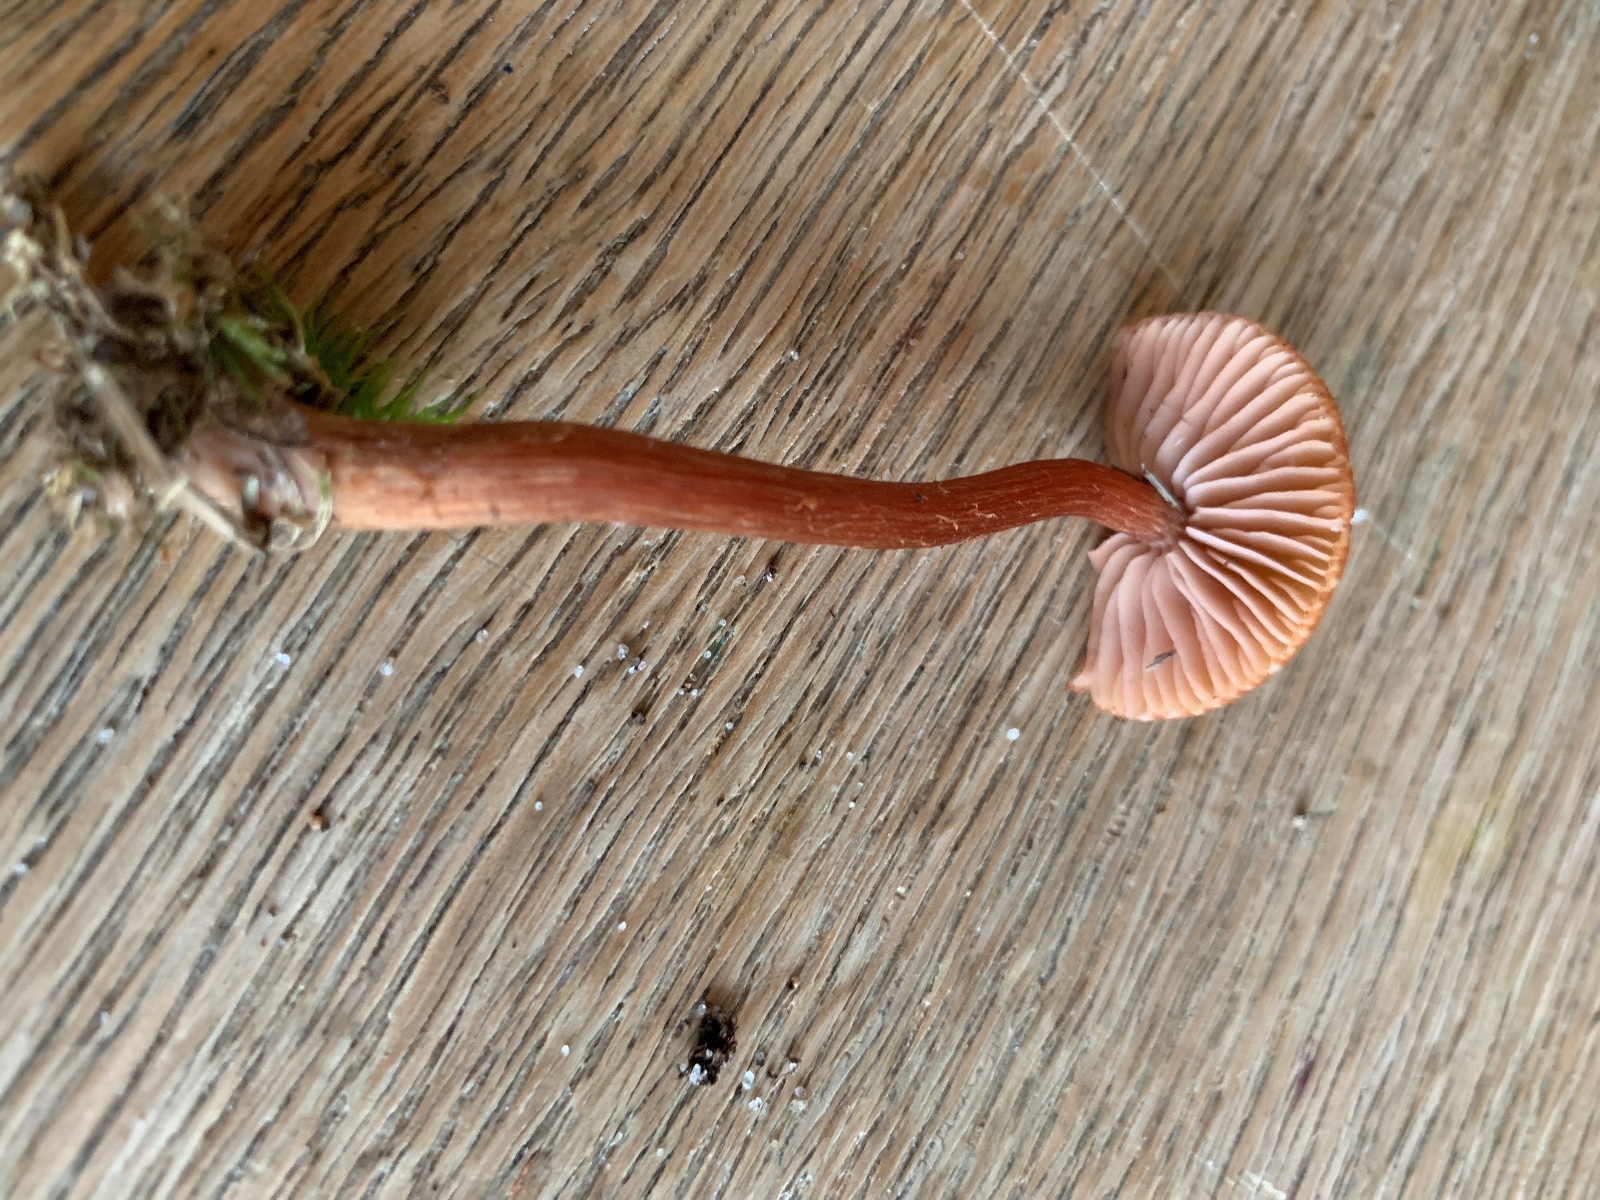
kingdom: Fungi
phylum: Basidiomycota
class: Agaricomycetes
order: Agaricales
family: Hydnangiaceae
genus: Laccaria
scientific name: Laccaria laccata
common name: rød ametysthat
